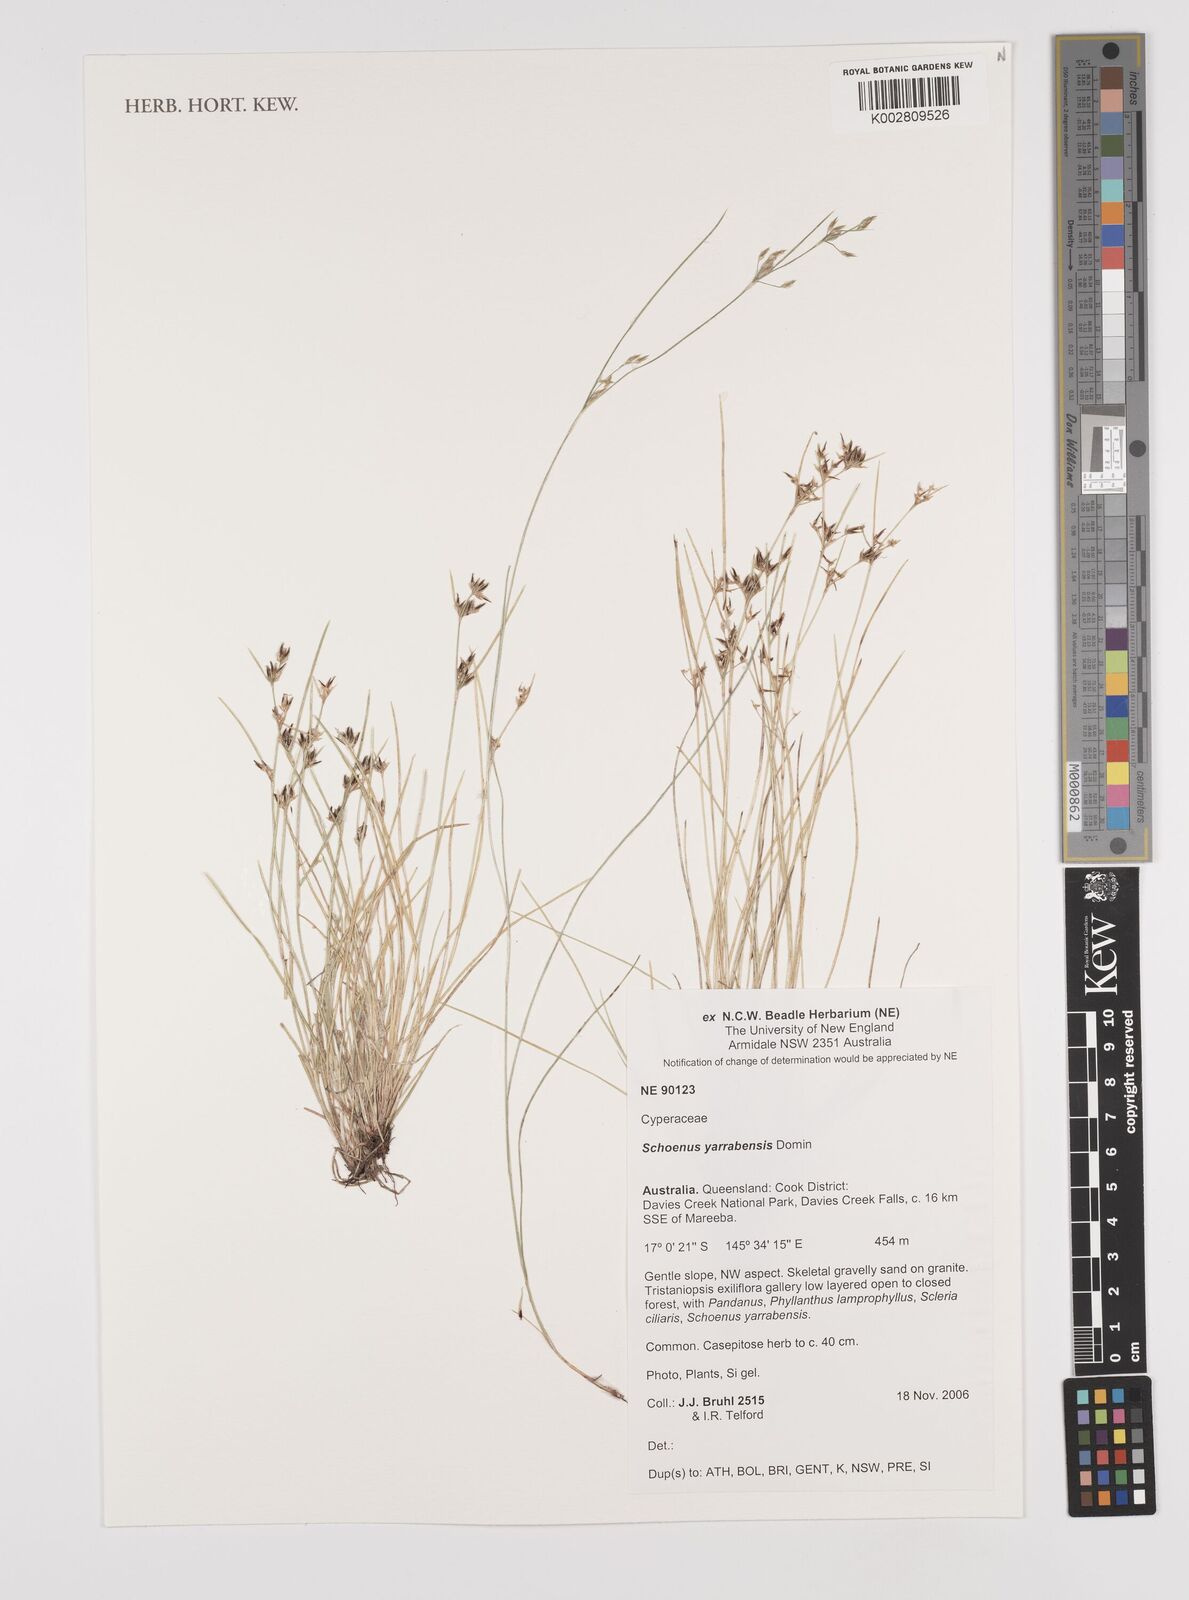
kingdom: Plantae
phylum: Tracheophyta
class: Liliopsida
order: Poales
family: Cyperaceae
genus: Schoenus
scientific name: Schoenus yarrabensis
